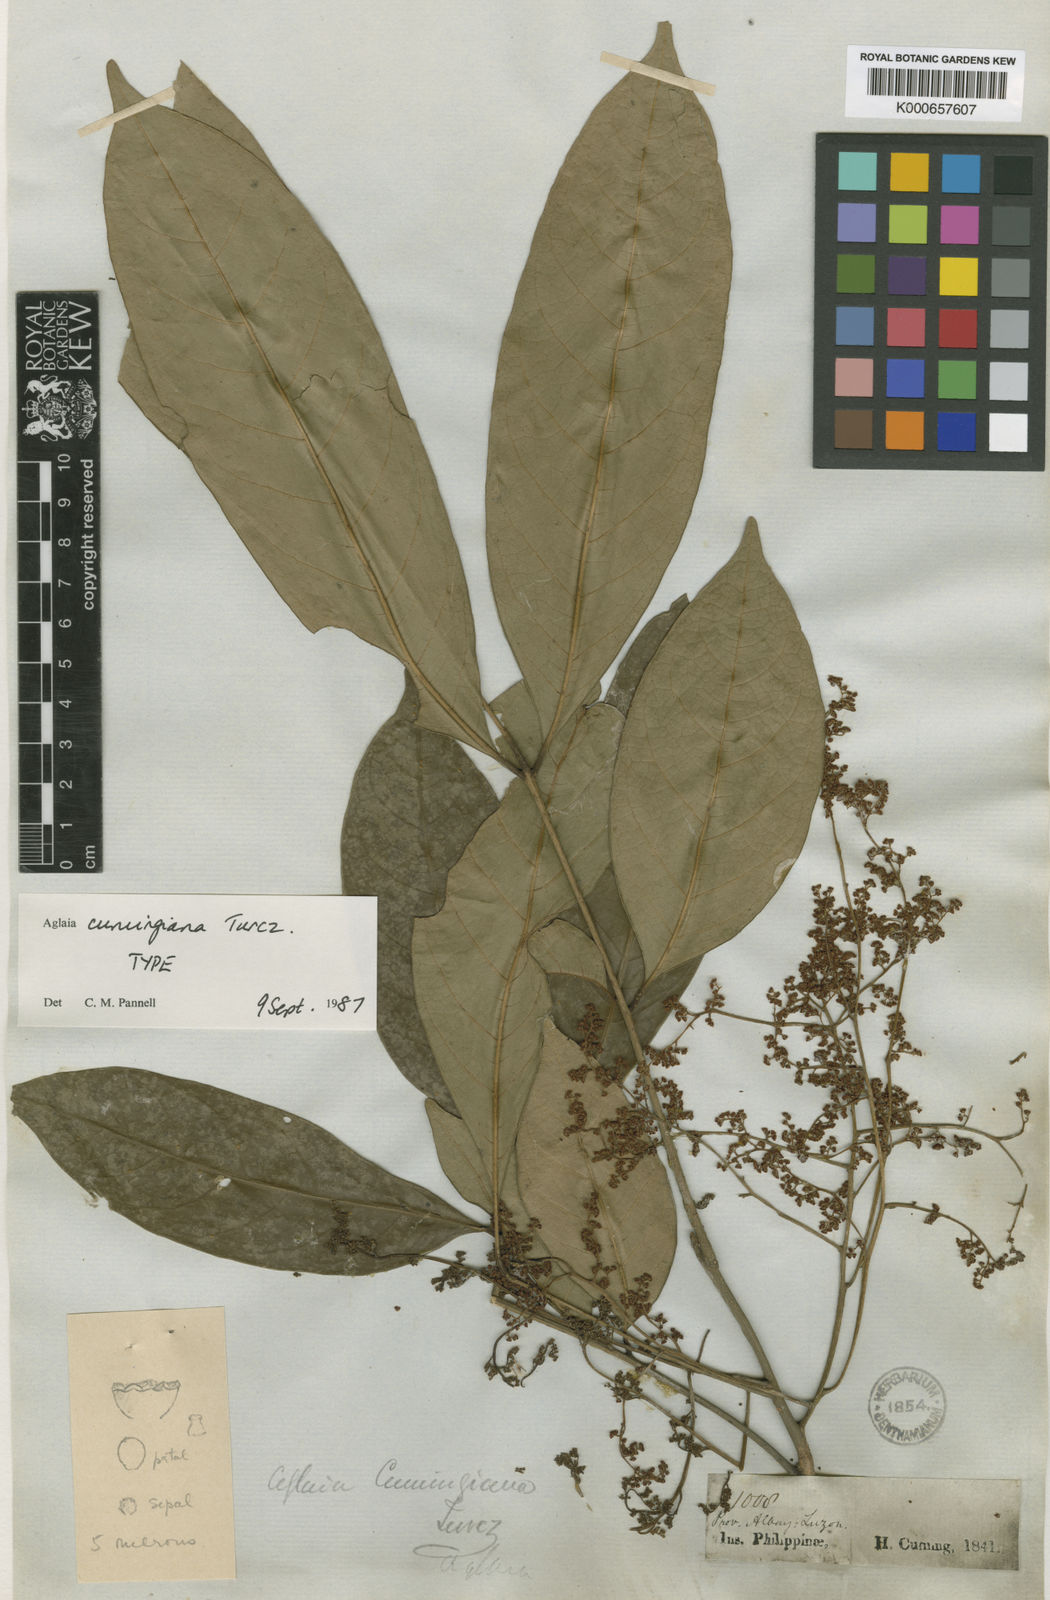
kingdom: Plantae
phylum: Tracheophyta
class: Magnoliopsida
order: Sapindales
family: Meliaceae
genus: Aglaia
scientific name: Aglaia cumingiana
